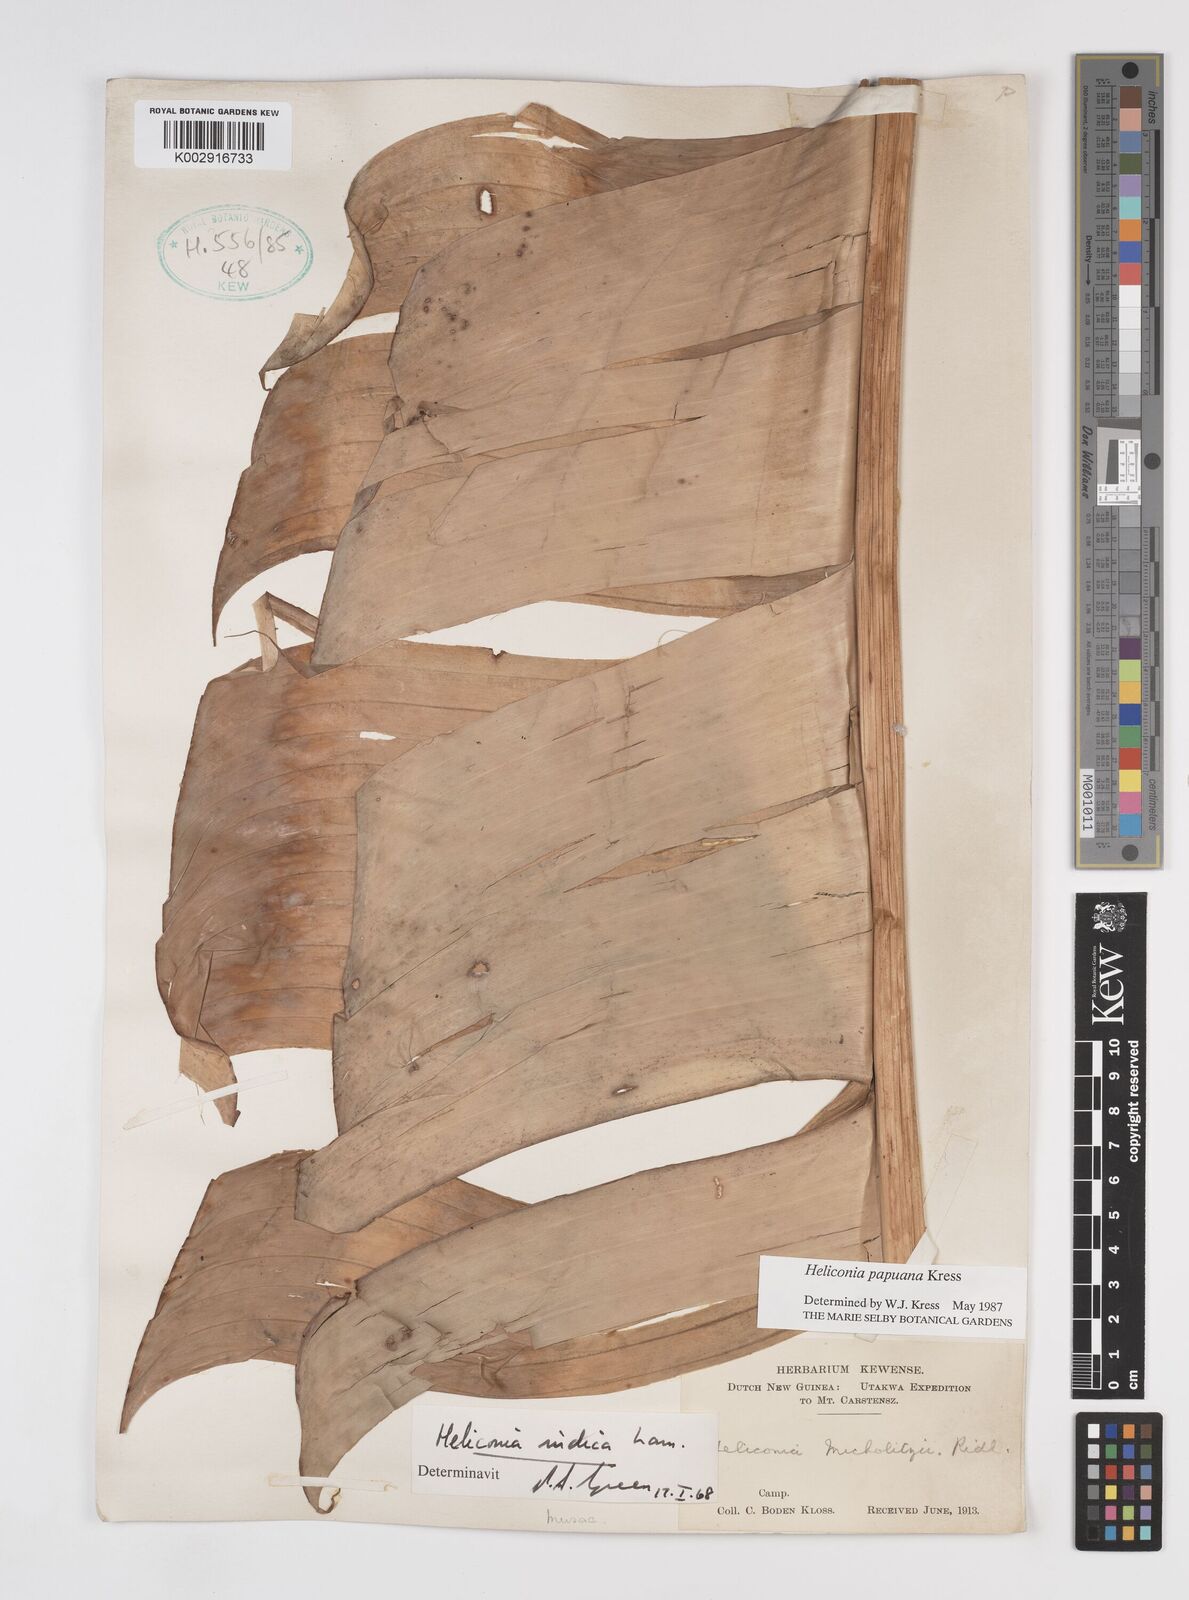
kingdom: Plantae
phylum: Tracheophyta
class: Liliopsida
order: Zingiberales
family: Heliconiaceae
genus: Heliconia
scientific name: Heliconia papuana
